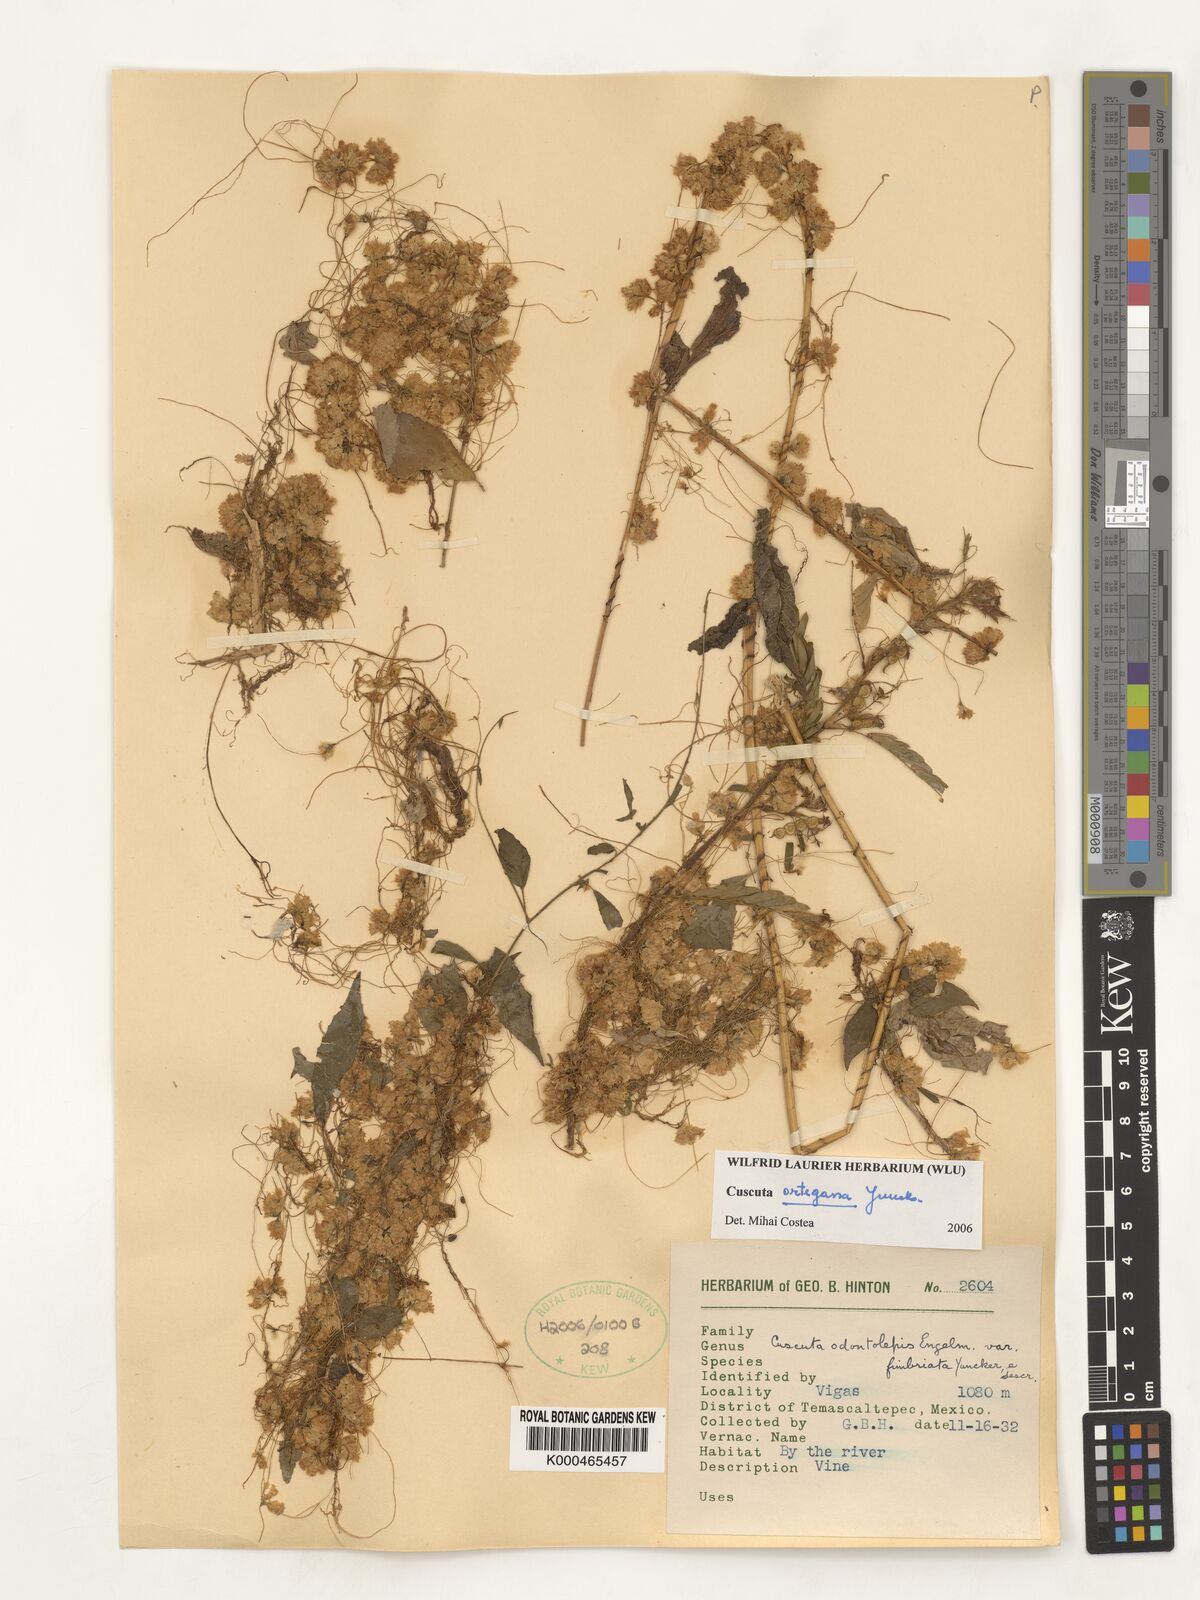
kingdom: Plantae
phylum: Tracheophyta
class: Magnoliopsida
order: Solanales
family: Convolvulaceae
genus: Cuscuta
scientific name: Cuscuta ortegana
